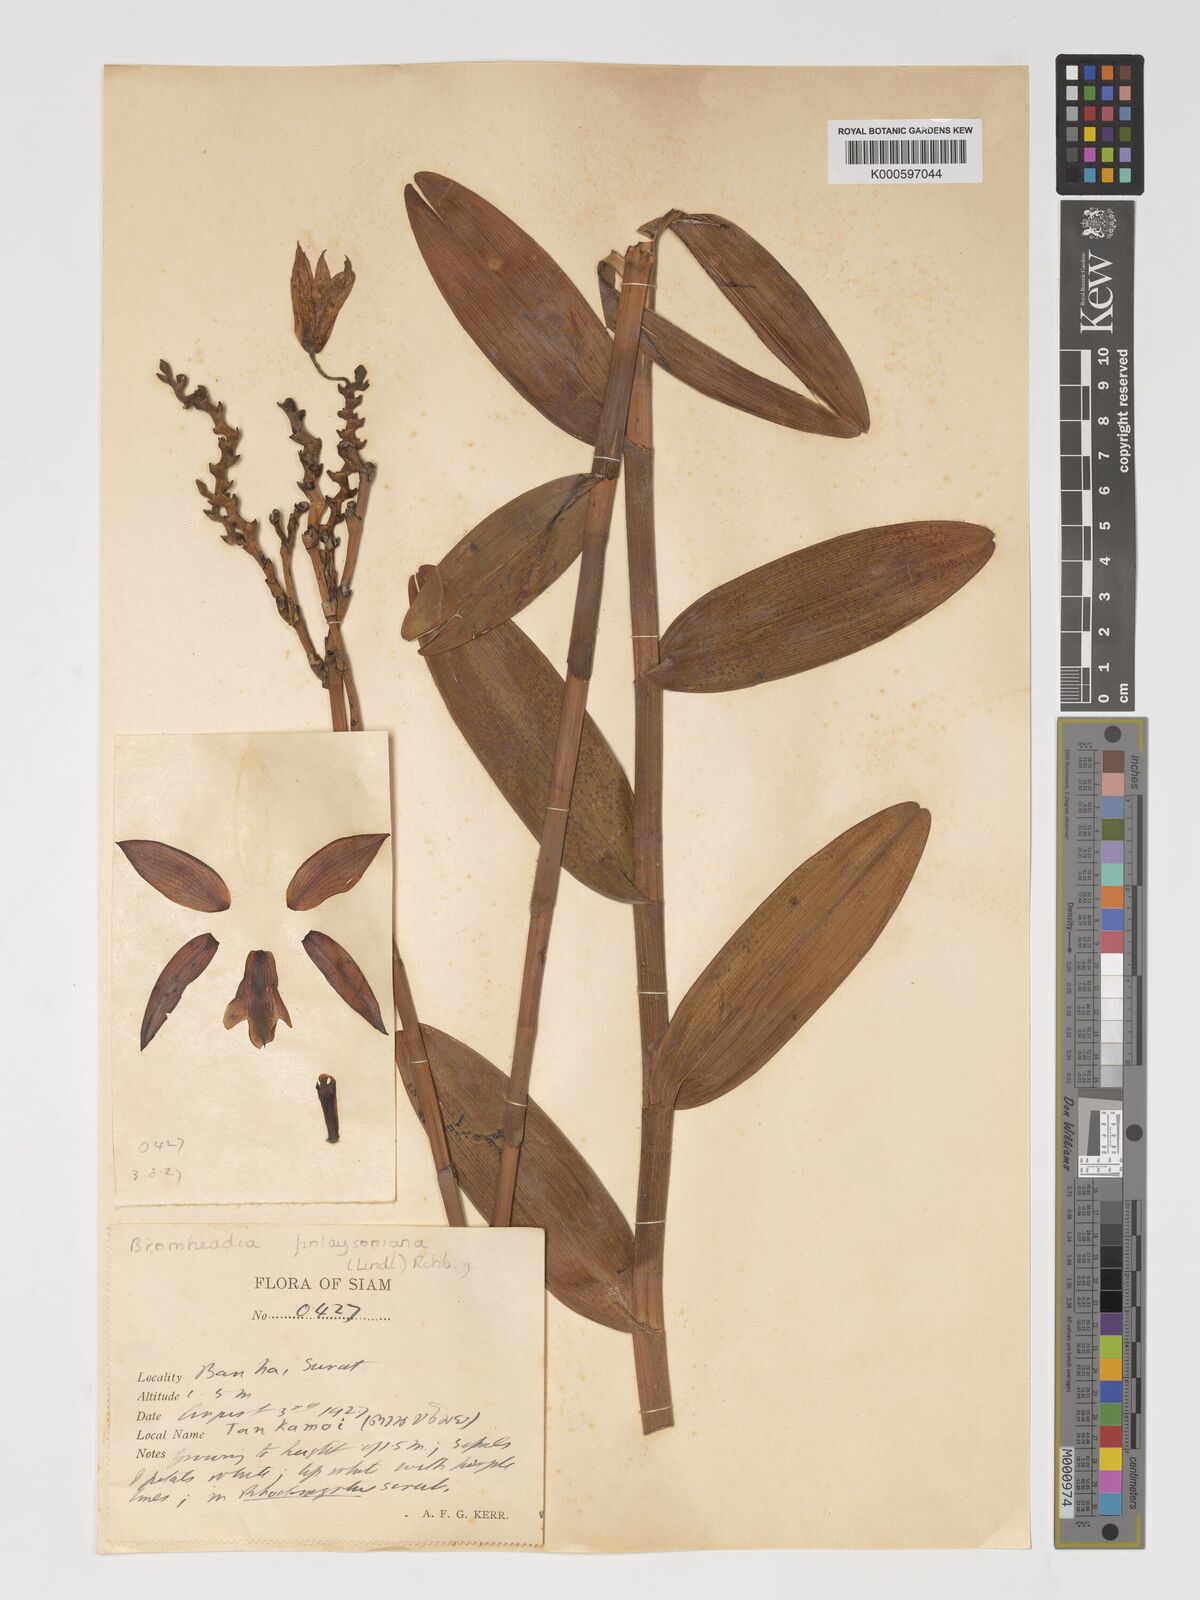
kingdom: Plantae
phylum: Tracheophyta
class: Liliopsida
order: Asparagales
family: Orchidaceae
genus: Bromheadia
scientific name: Bromheadia
